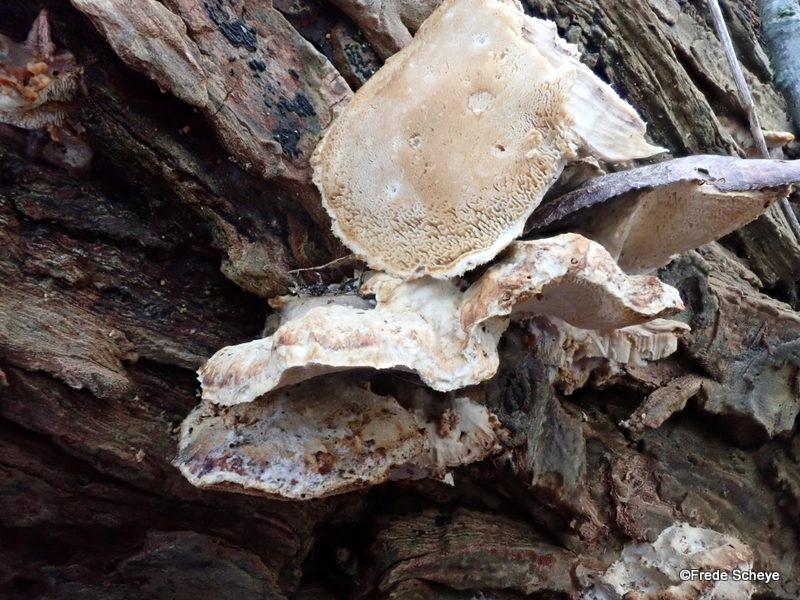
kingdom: Fungi
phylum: Basidiomycota
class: Agaricomycetes
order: Polyporales
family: Phanerochaetaceae
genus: Bjerkandera
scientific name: Bjerkandera fumosa
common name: grågul sodporesvamp
